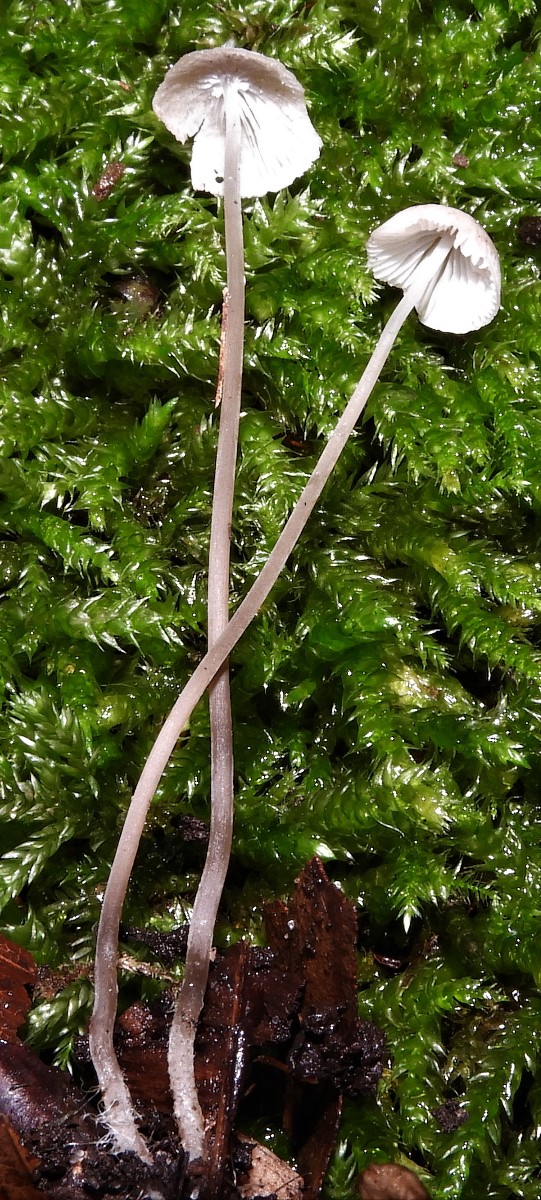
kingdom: Fungi
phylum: Basidiomycota
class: Agaricomycetes
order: Agaricales
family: Mycenaceae
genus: Mycena
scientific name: Mycena
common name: huesvamp
